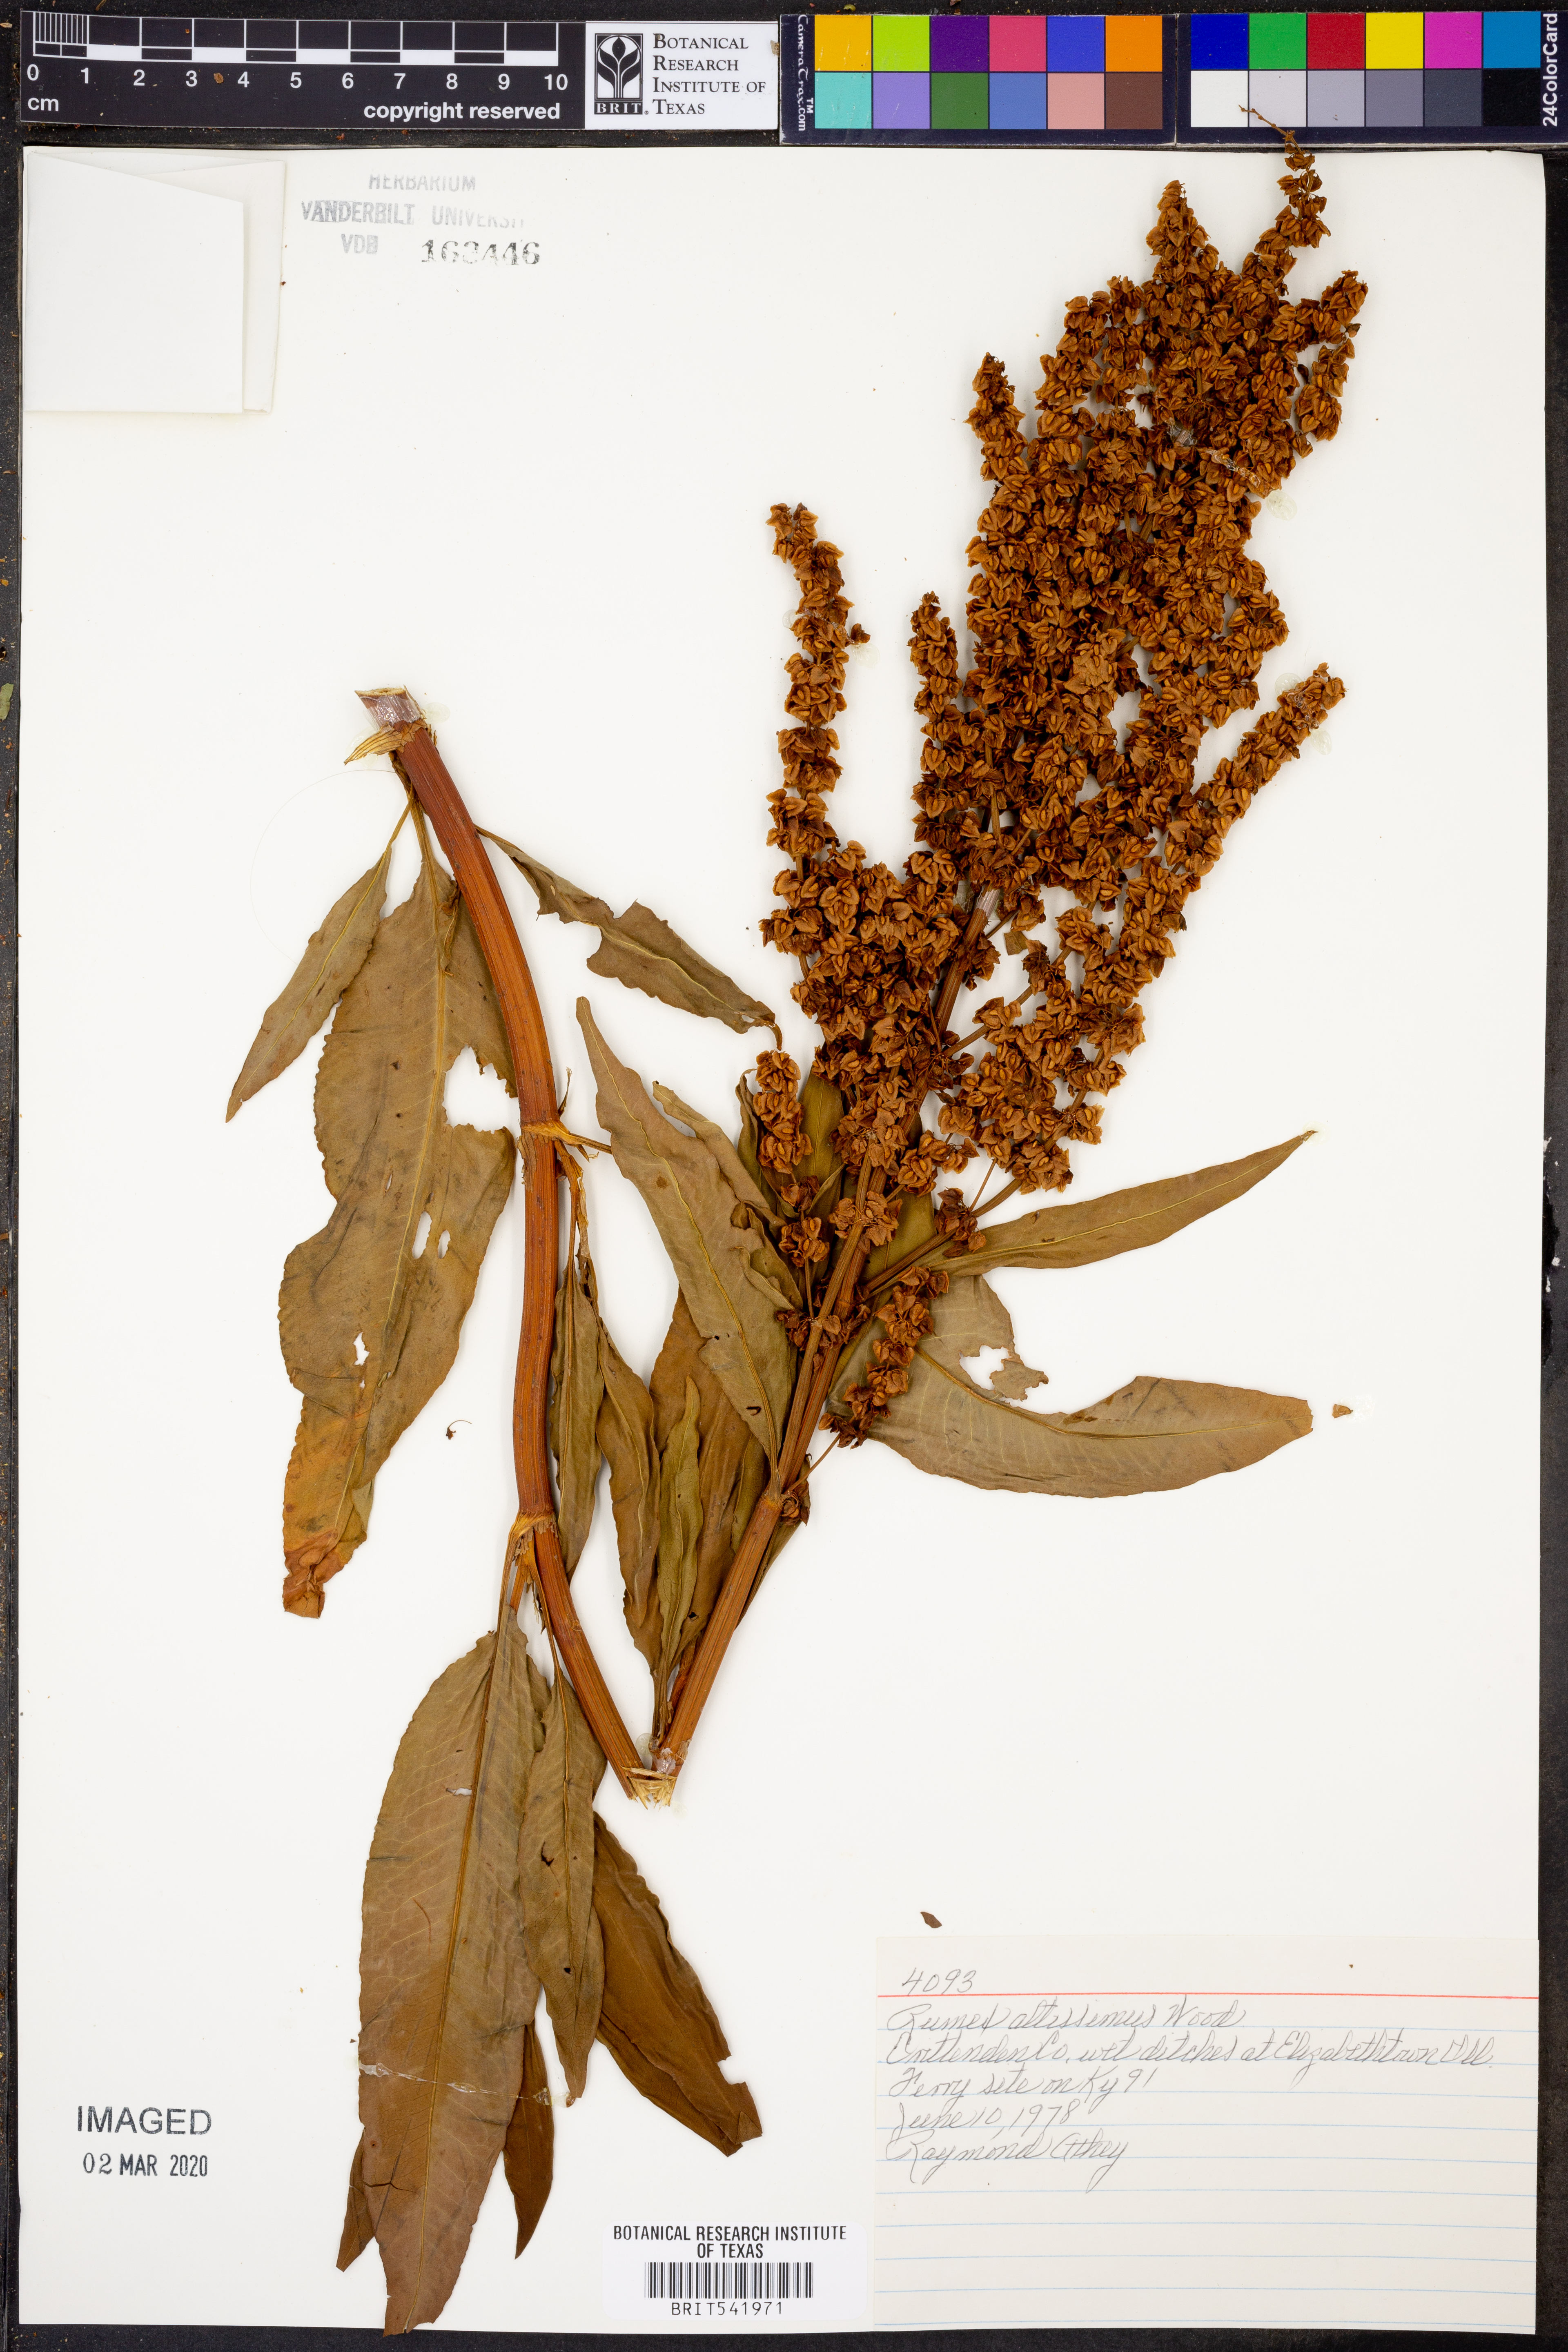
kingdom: Plantae
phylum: Tracheophyta
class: Magnoliopsida
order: Caryophyllales
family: Polygonaceae
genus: Rumex
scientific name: Rumex altissimus
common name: Smooth dock
